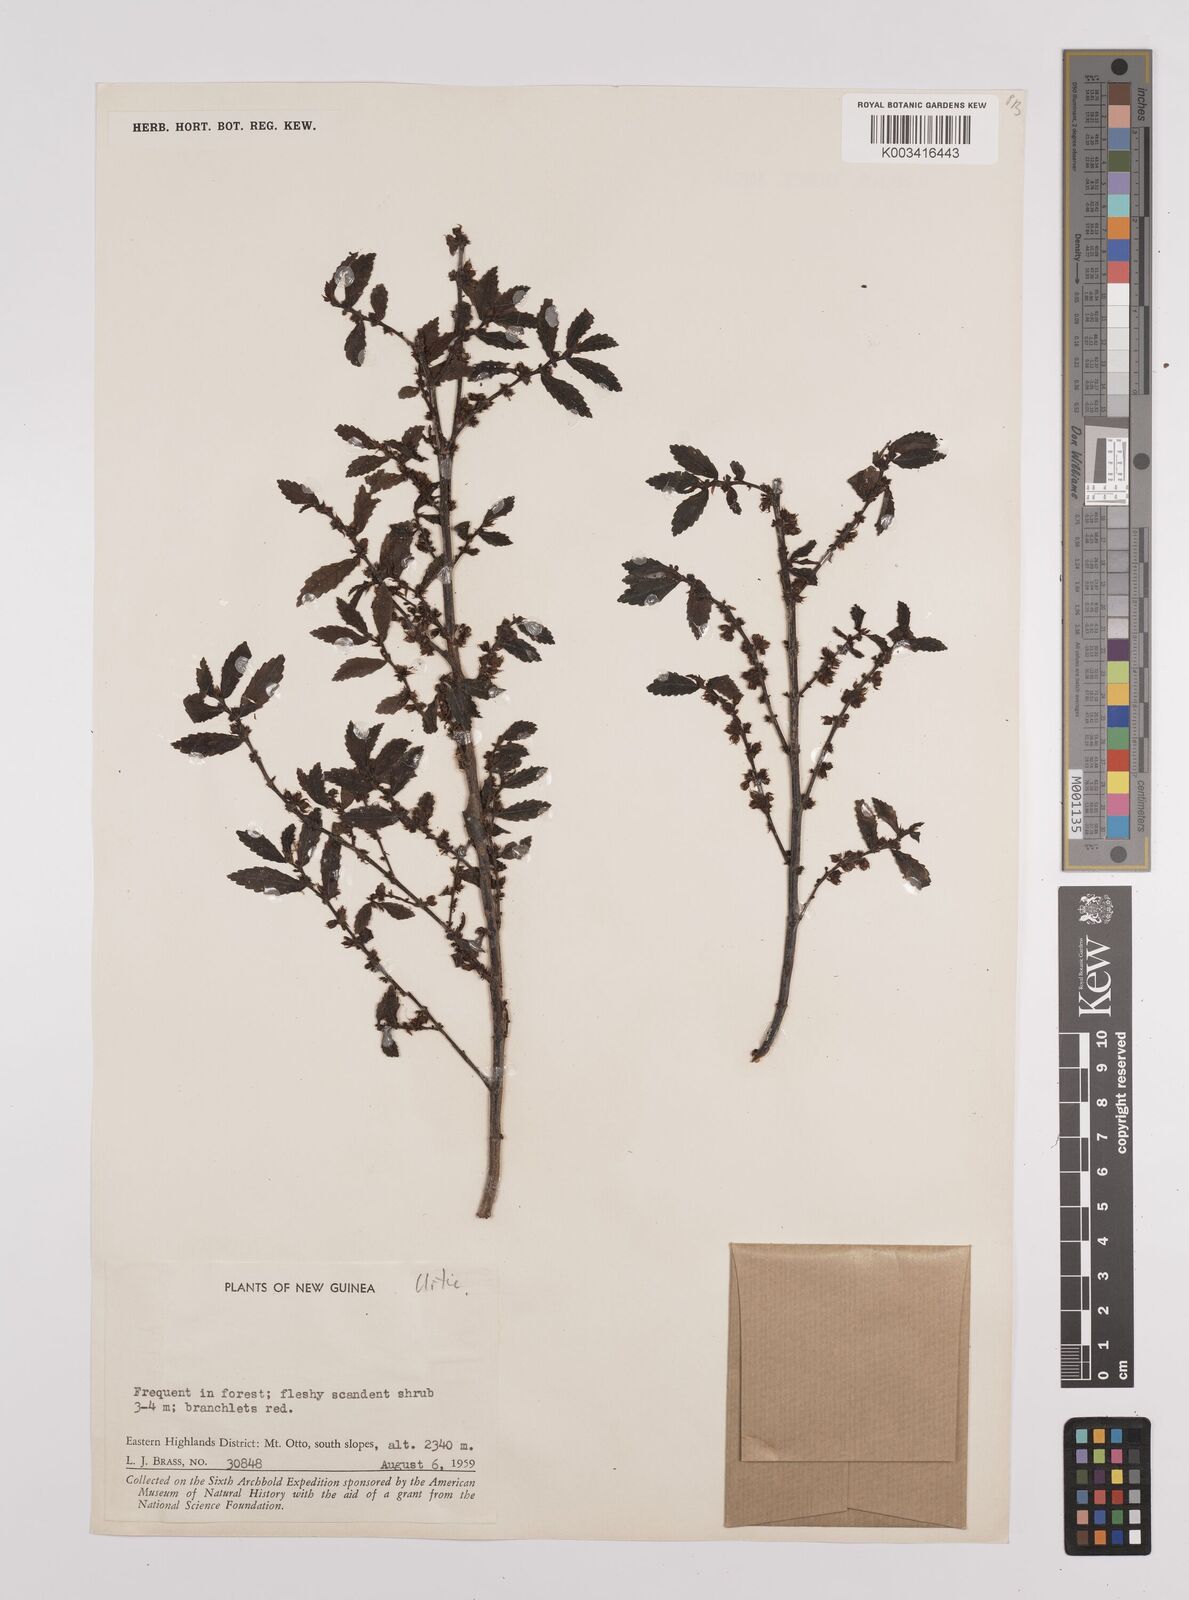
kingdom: Plantae
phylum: Tracheophyta
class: Magnoliopsida
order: Rosales
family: Urticaceae
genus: Elatostema
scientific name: Elatostema
